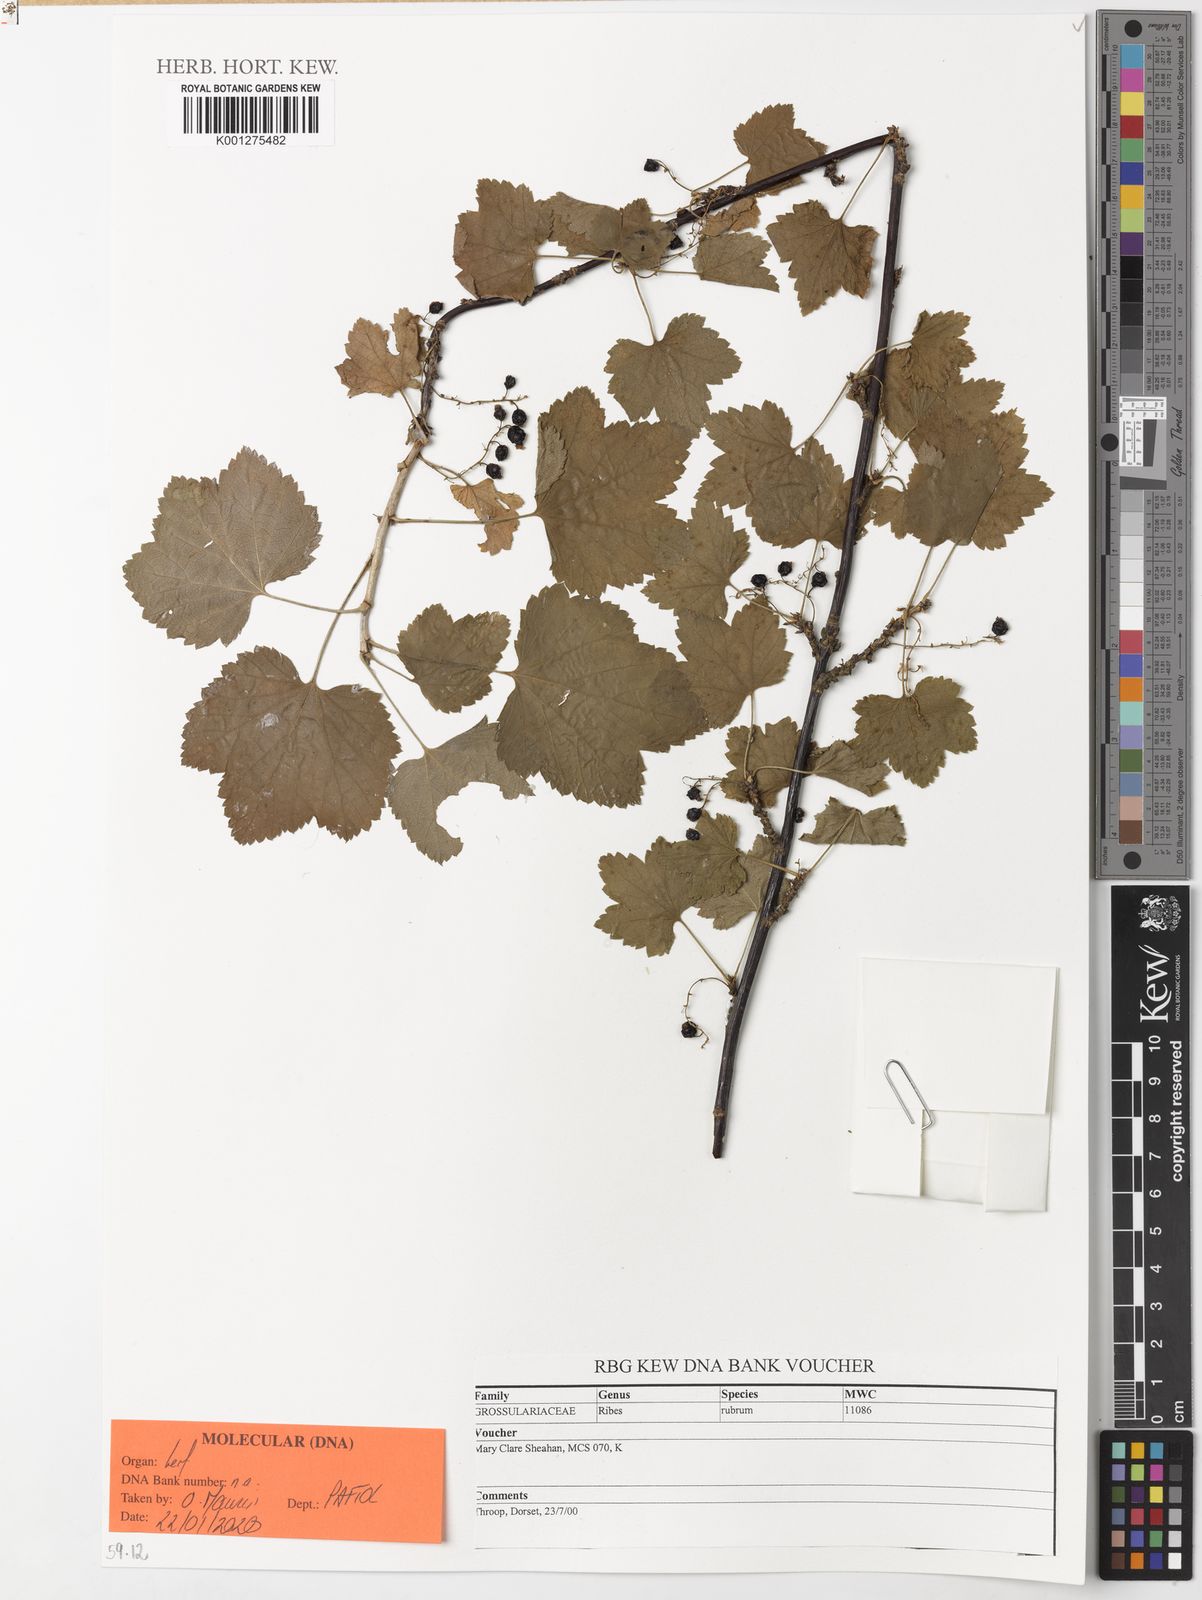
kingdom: Plantae
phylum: Tracheophyta
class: Magnoliopsida
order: Saxifragales
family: Grossulariaceae
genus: Ribes
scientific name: Ribes rubrum
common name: Red currant
